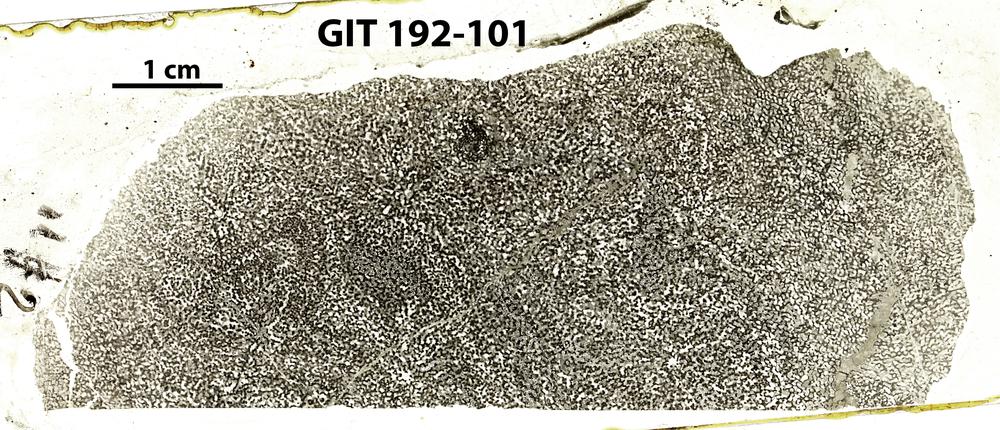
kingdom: Animalia
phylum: Porifera
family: Ecclimadictyidae
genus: Ecclimadictyon
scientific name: Ecclimadictyon
